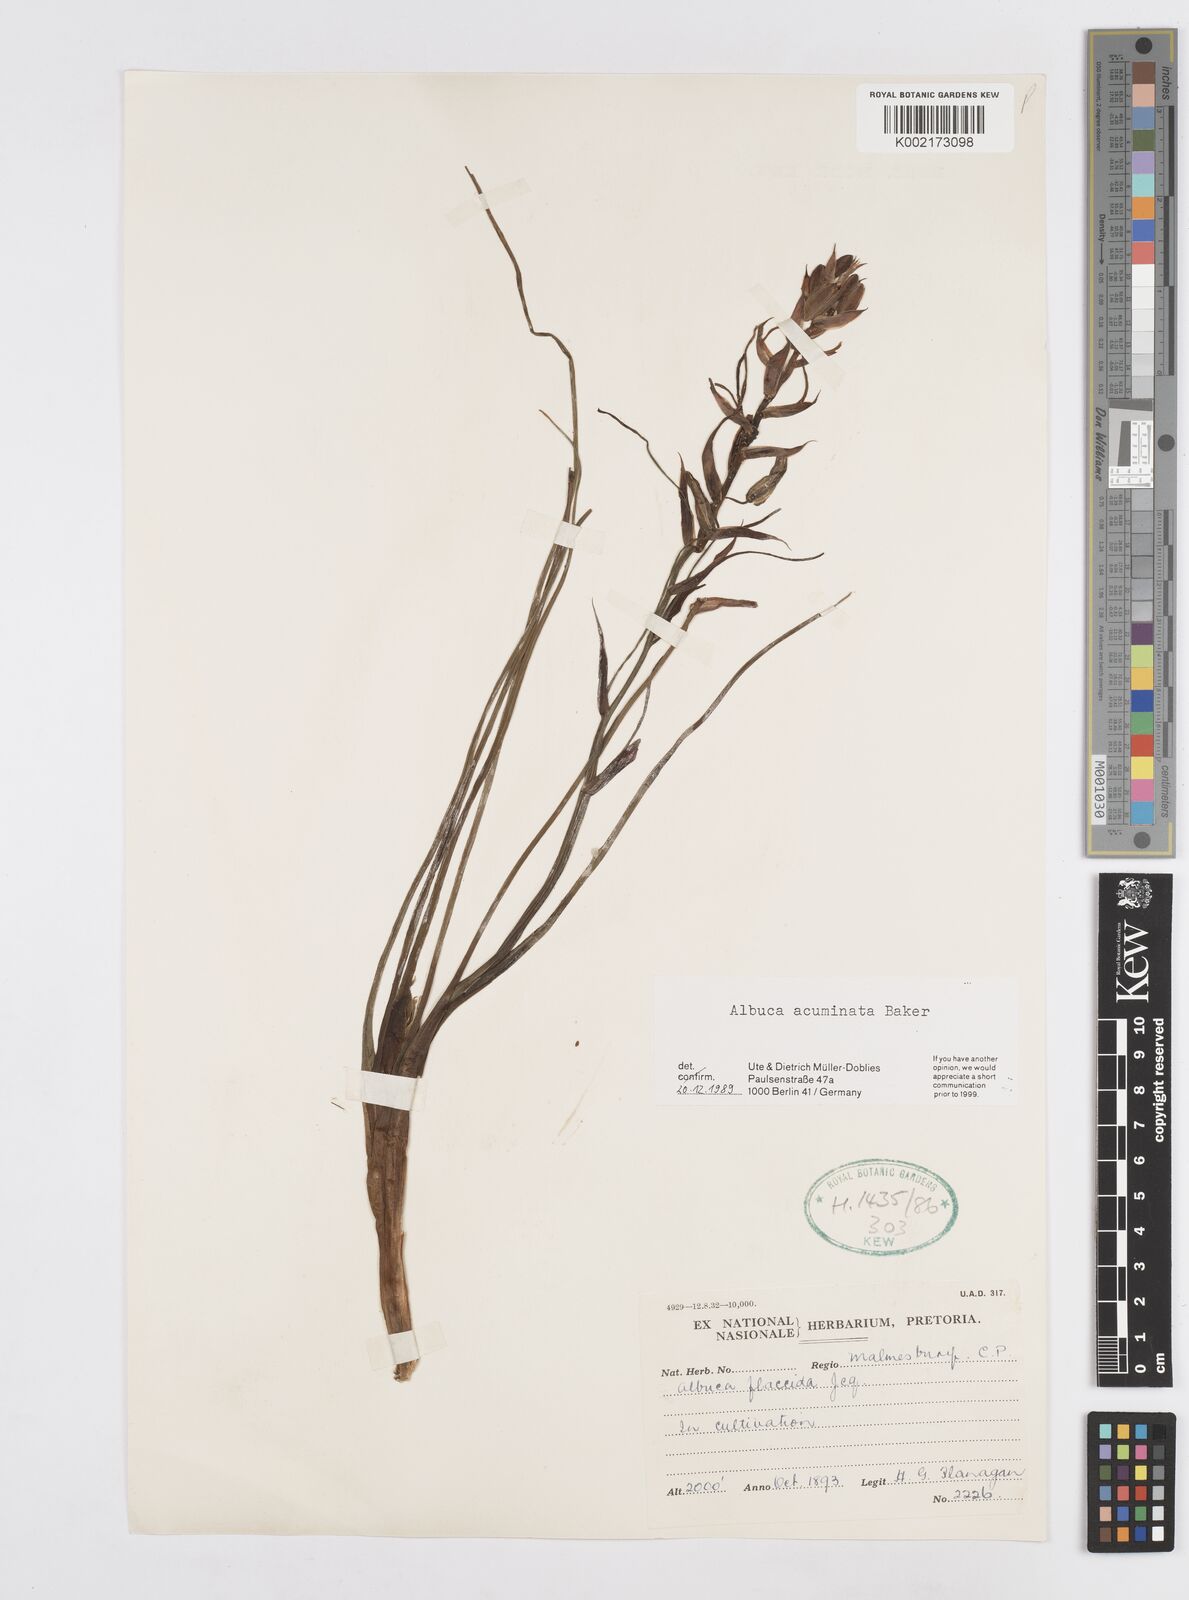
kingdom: Plantae
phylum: Tracheophyta
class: Liliopsida
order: Asparagales
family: Asparagaceae
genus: Albuca
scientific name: Albuca acuminata
